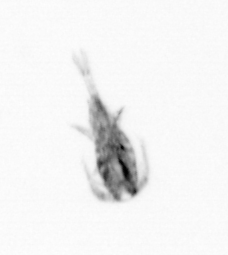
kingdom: Animalia
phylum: Arthropoda
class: Copepoda
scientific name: Copepoda
